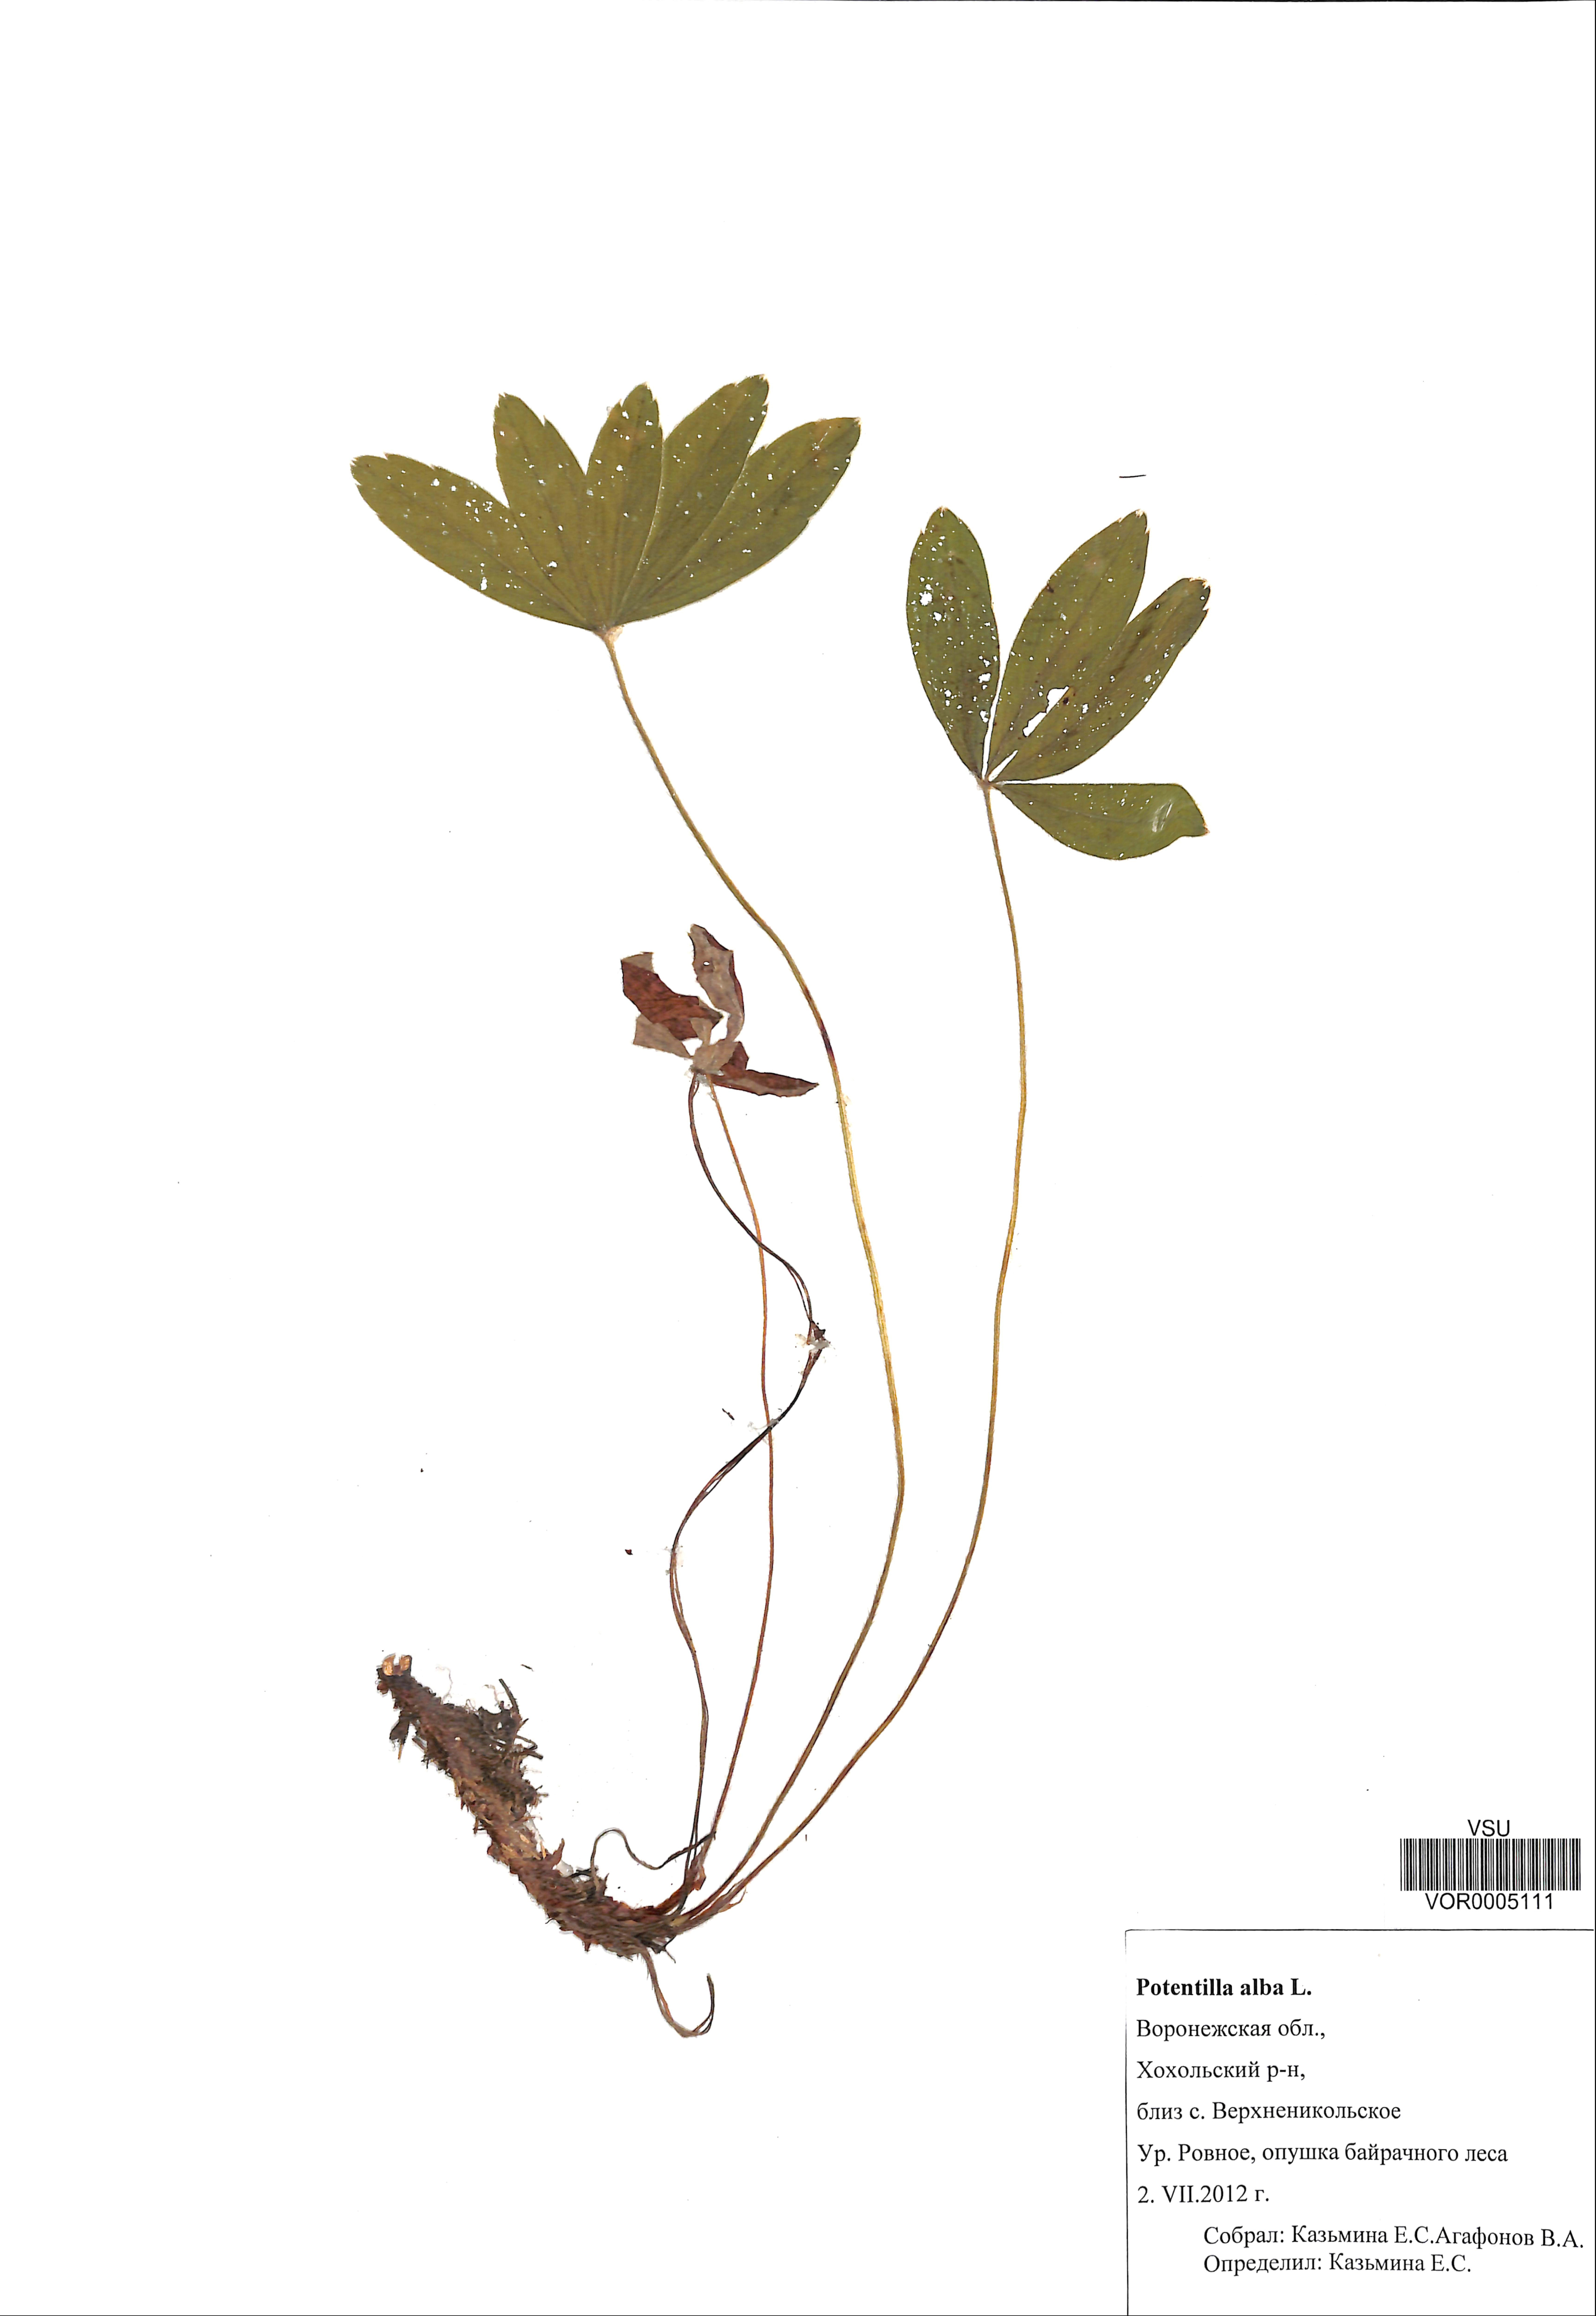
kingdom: Plantae
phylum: Tracheophyta
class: Magnoliopsida
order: Rosales
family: Rosaceae
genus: Potentilla
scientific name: Potentilla alba
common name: White cinquefoil
